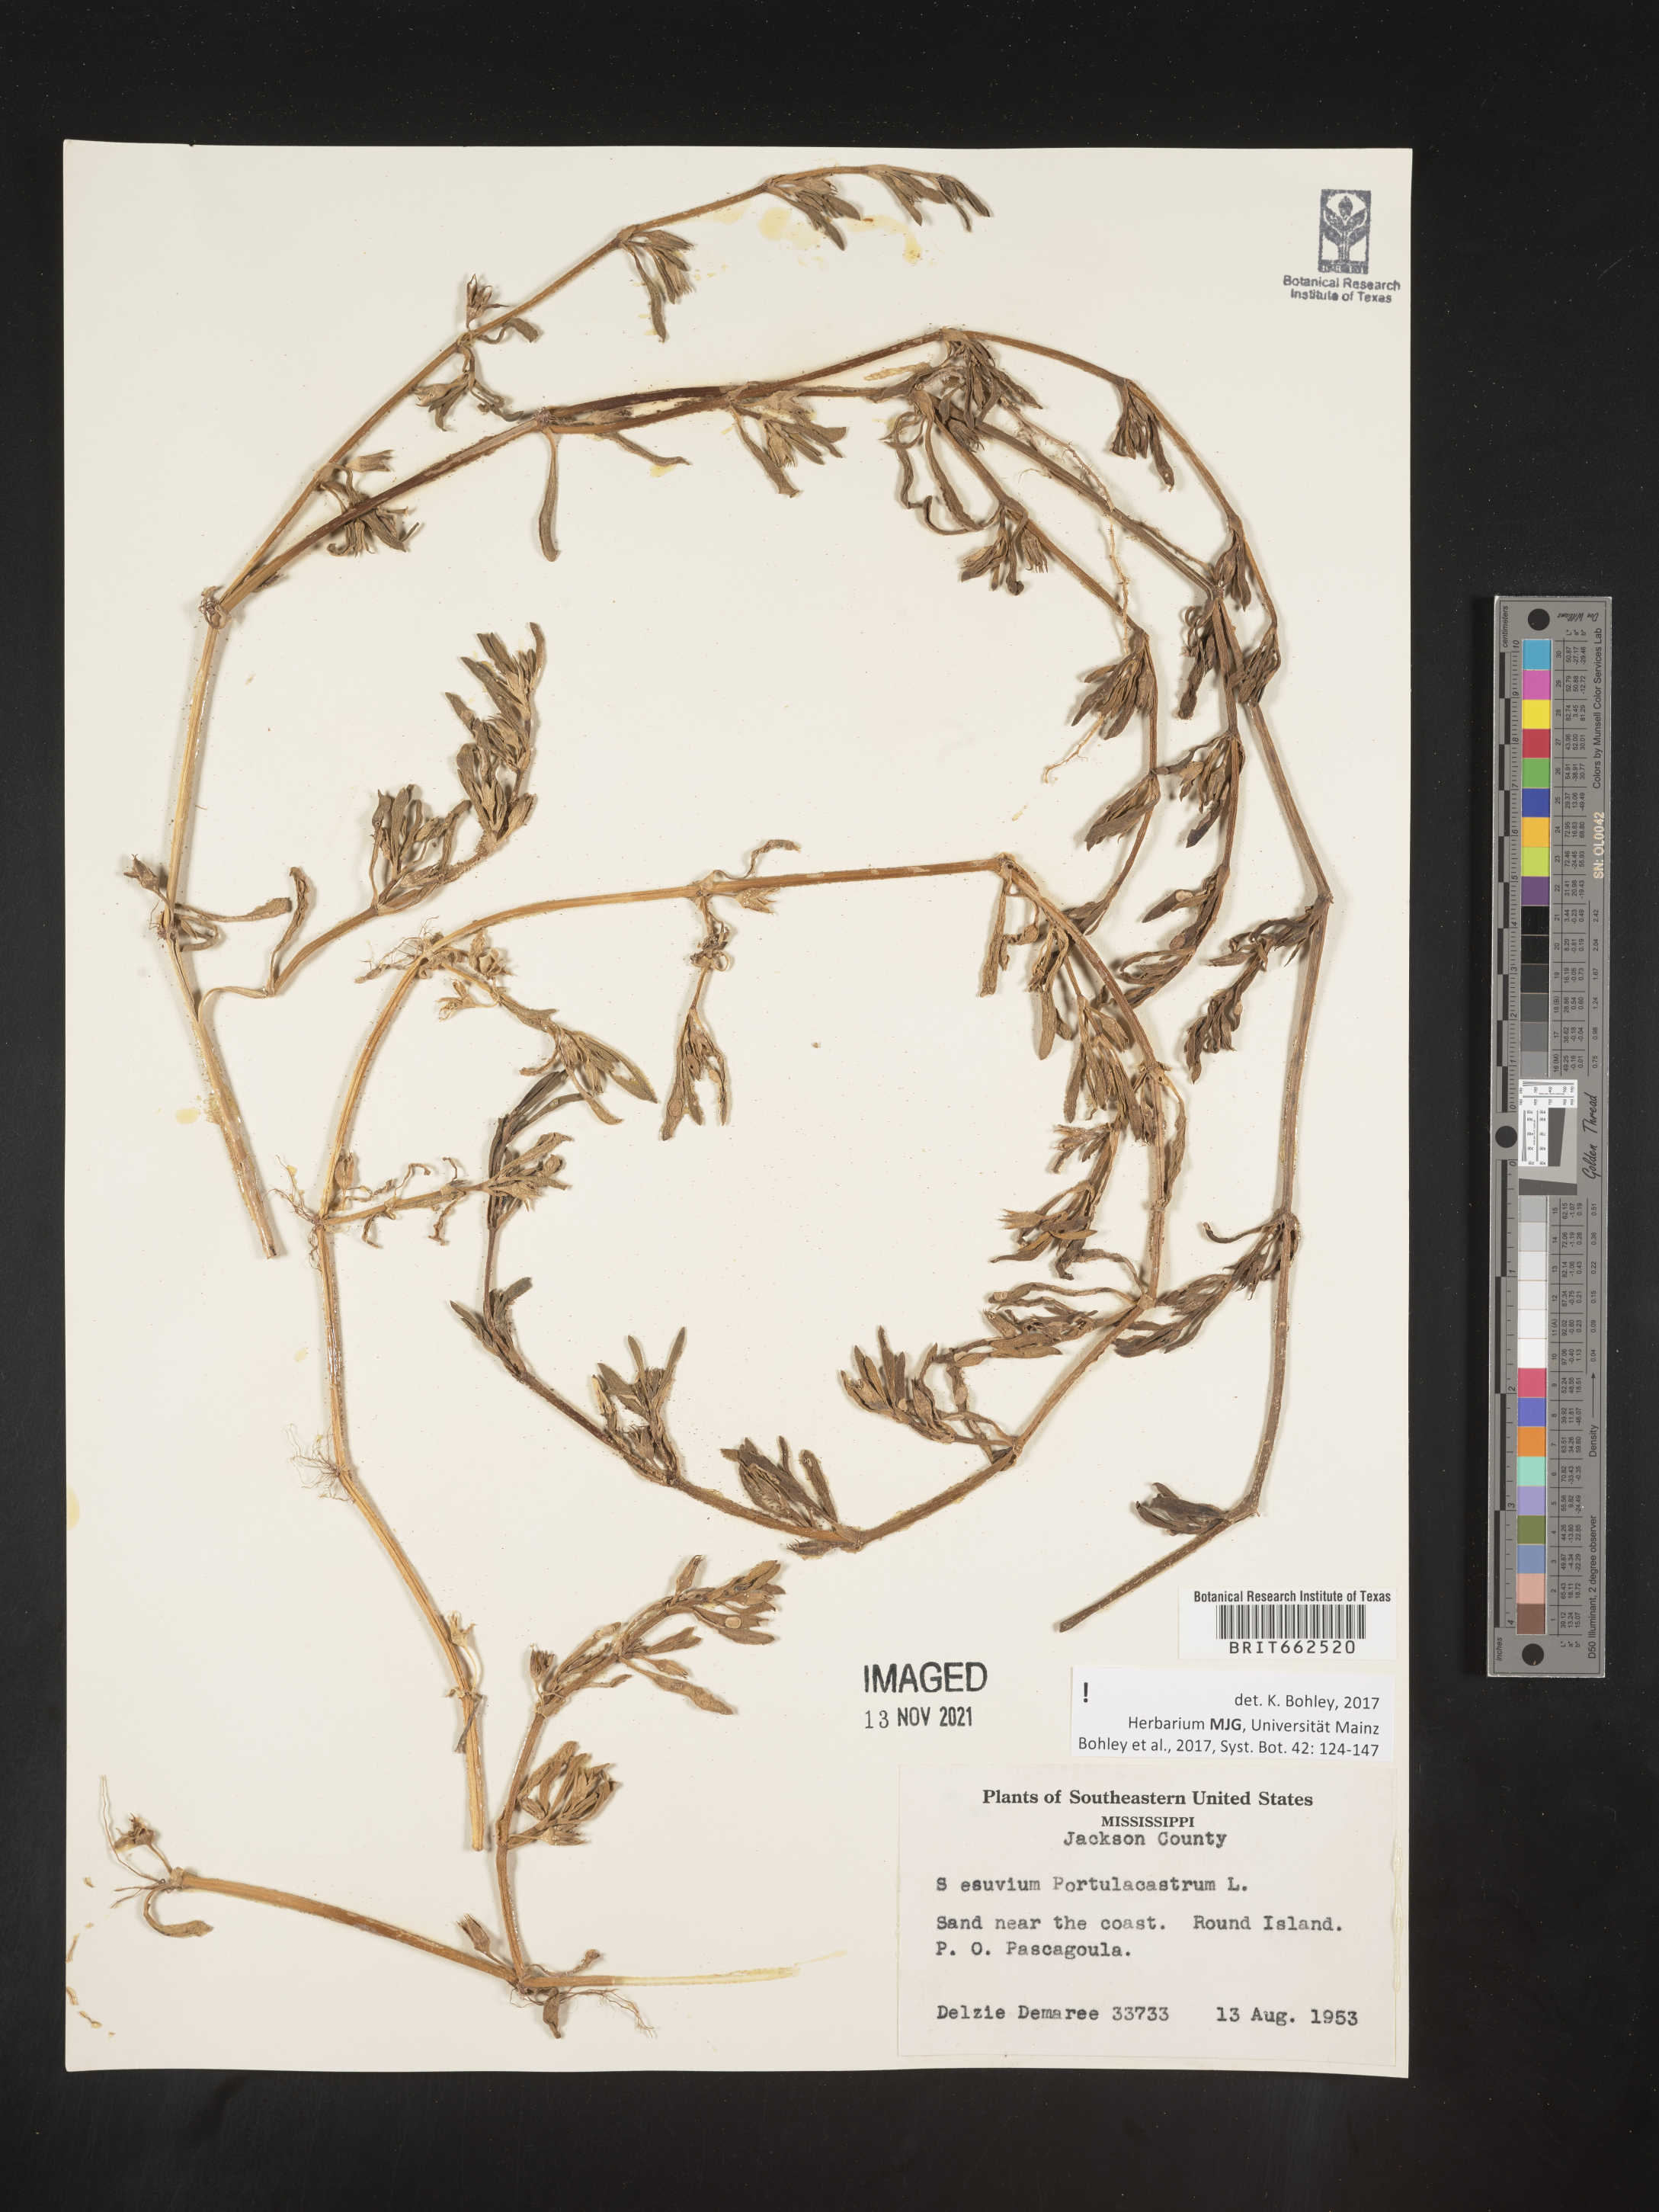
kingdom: Plantae
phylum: Tracheophyta
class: Magnoliopsida
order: Caryophyllales
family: Aizoaceae
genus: Sesuvium
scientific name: Sesuvium portulacastrum
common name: Sea-purslane
